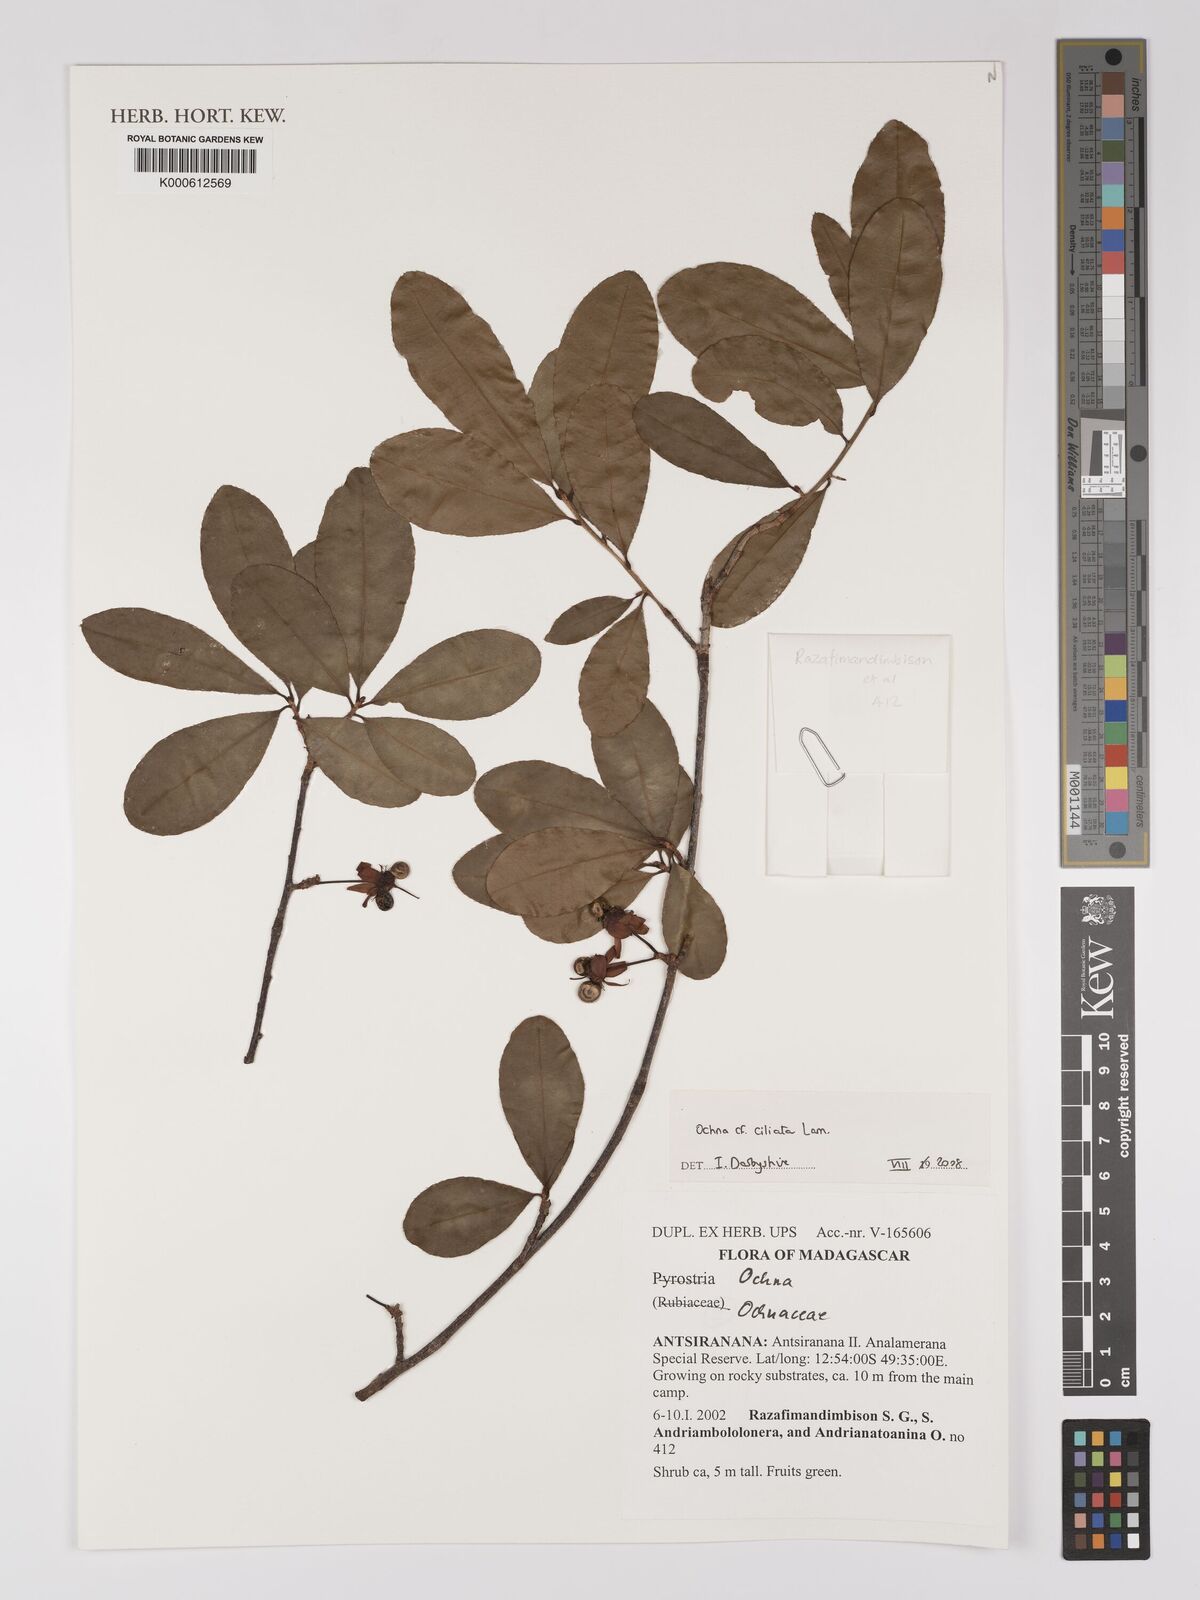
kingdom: Plantae
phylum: Tracheophyta
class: Magnoliopsida
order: Malpighiales
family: Ochnaceae
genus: Ochna
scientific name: Ochna ciliata
